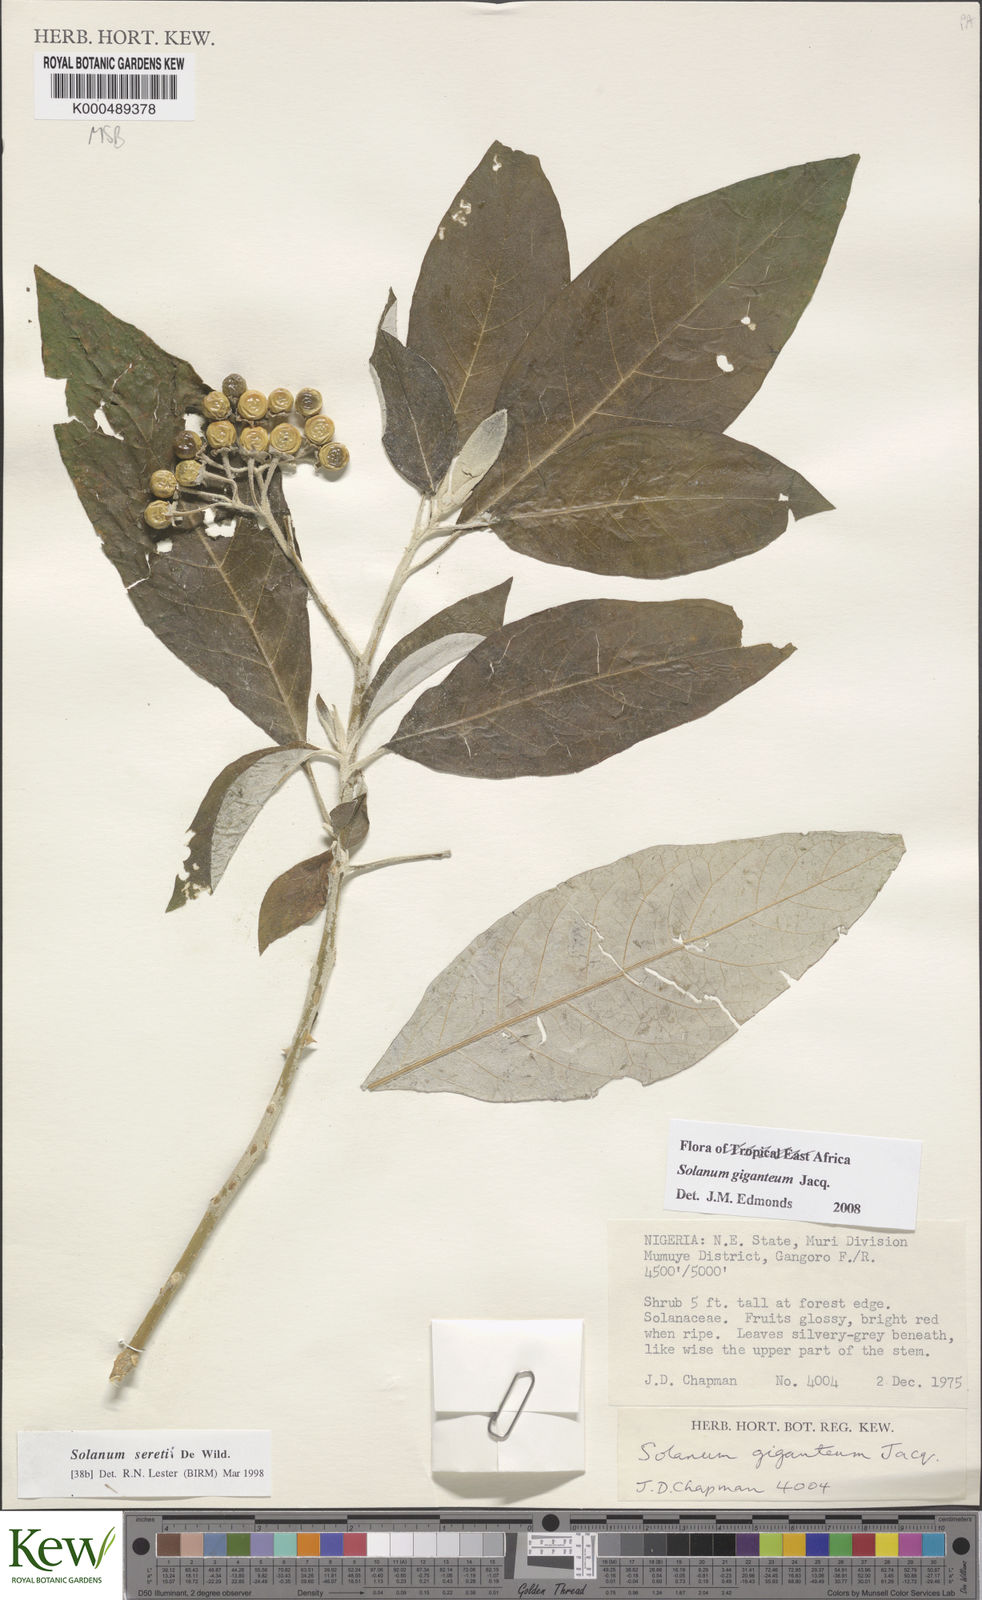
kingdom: Plantae
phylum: Tracheophyta
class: Magnoliopsida
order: Solanales
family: Solanaceae
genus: Solanum
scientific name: Solanum giganteum
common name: Healing-leaf-tree
